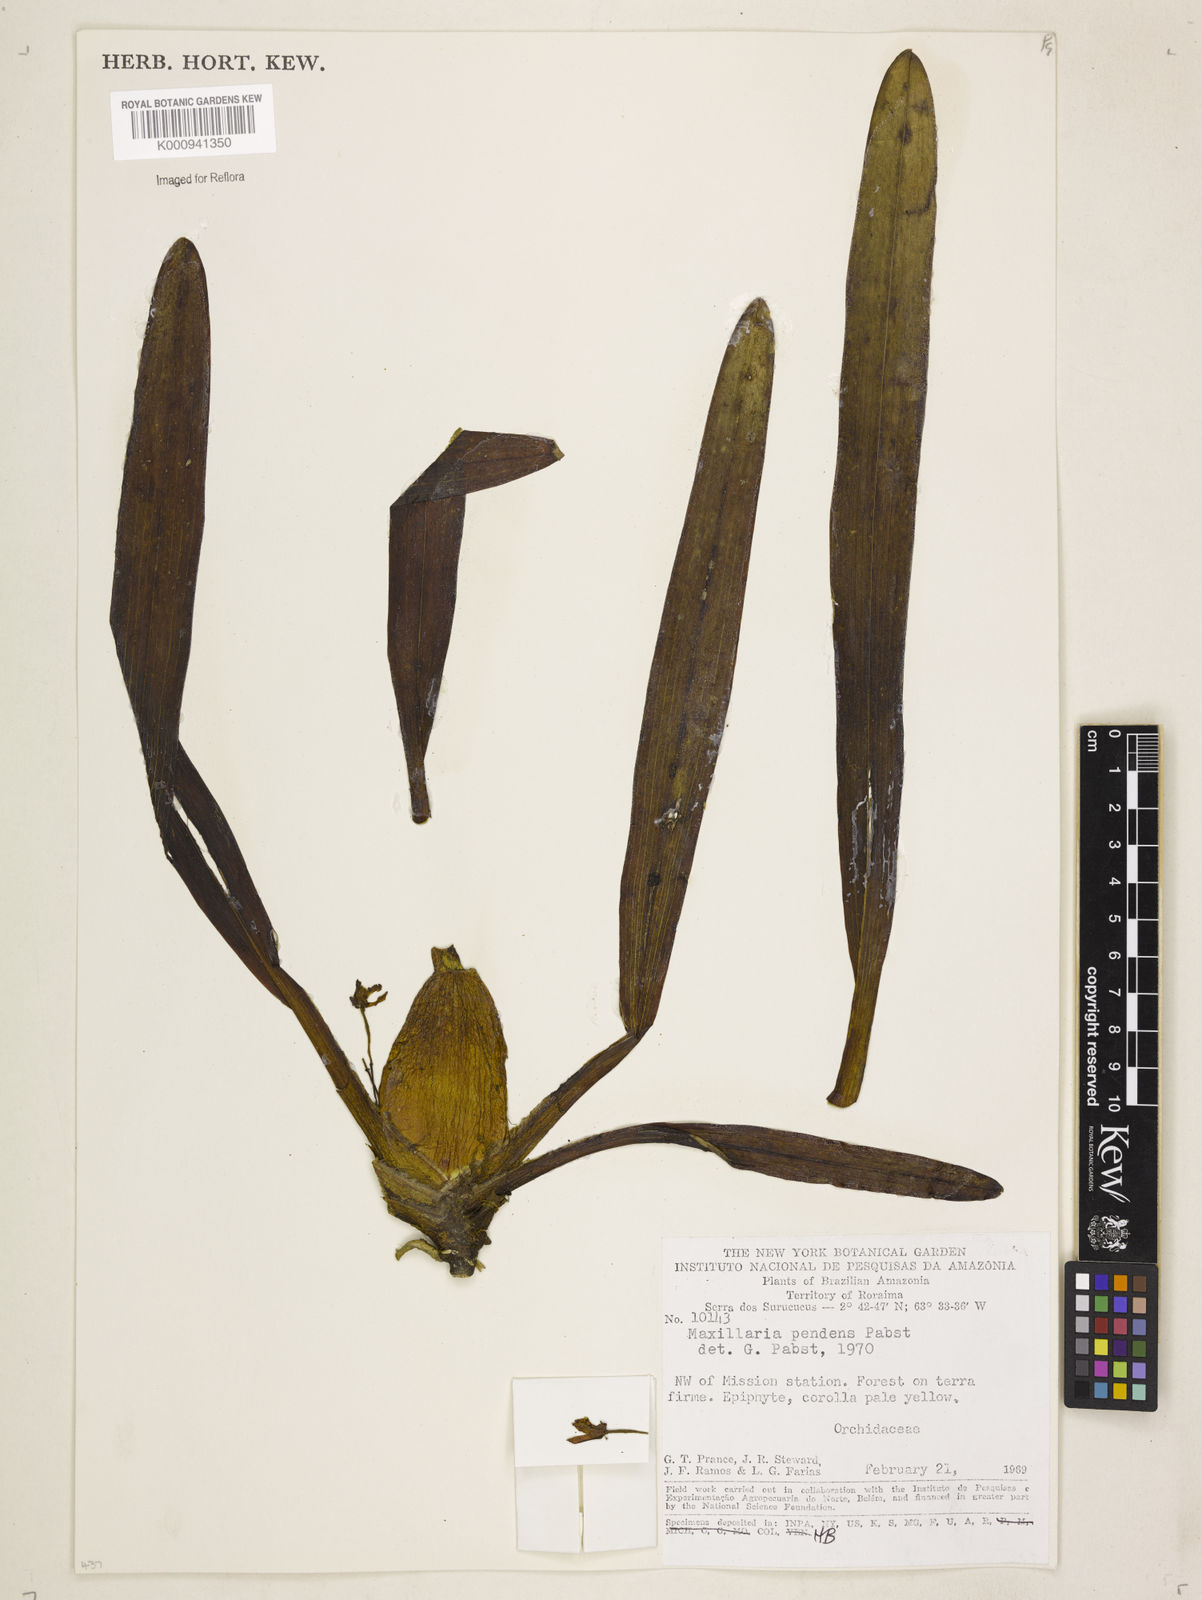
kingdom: Plantae
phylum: Tracheophyta
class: Liliopsida
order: Asparagales
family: Orchidaceae
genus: Maxillaria
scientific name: Maxillaria pendens
